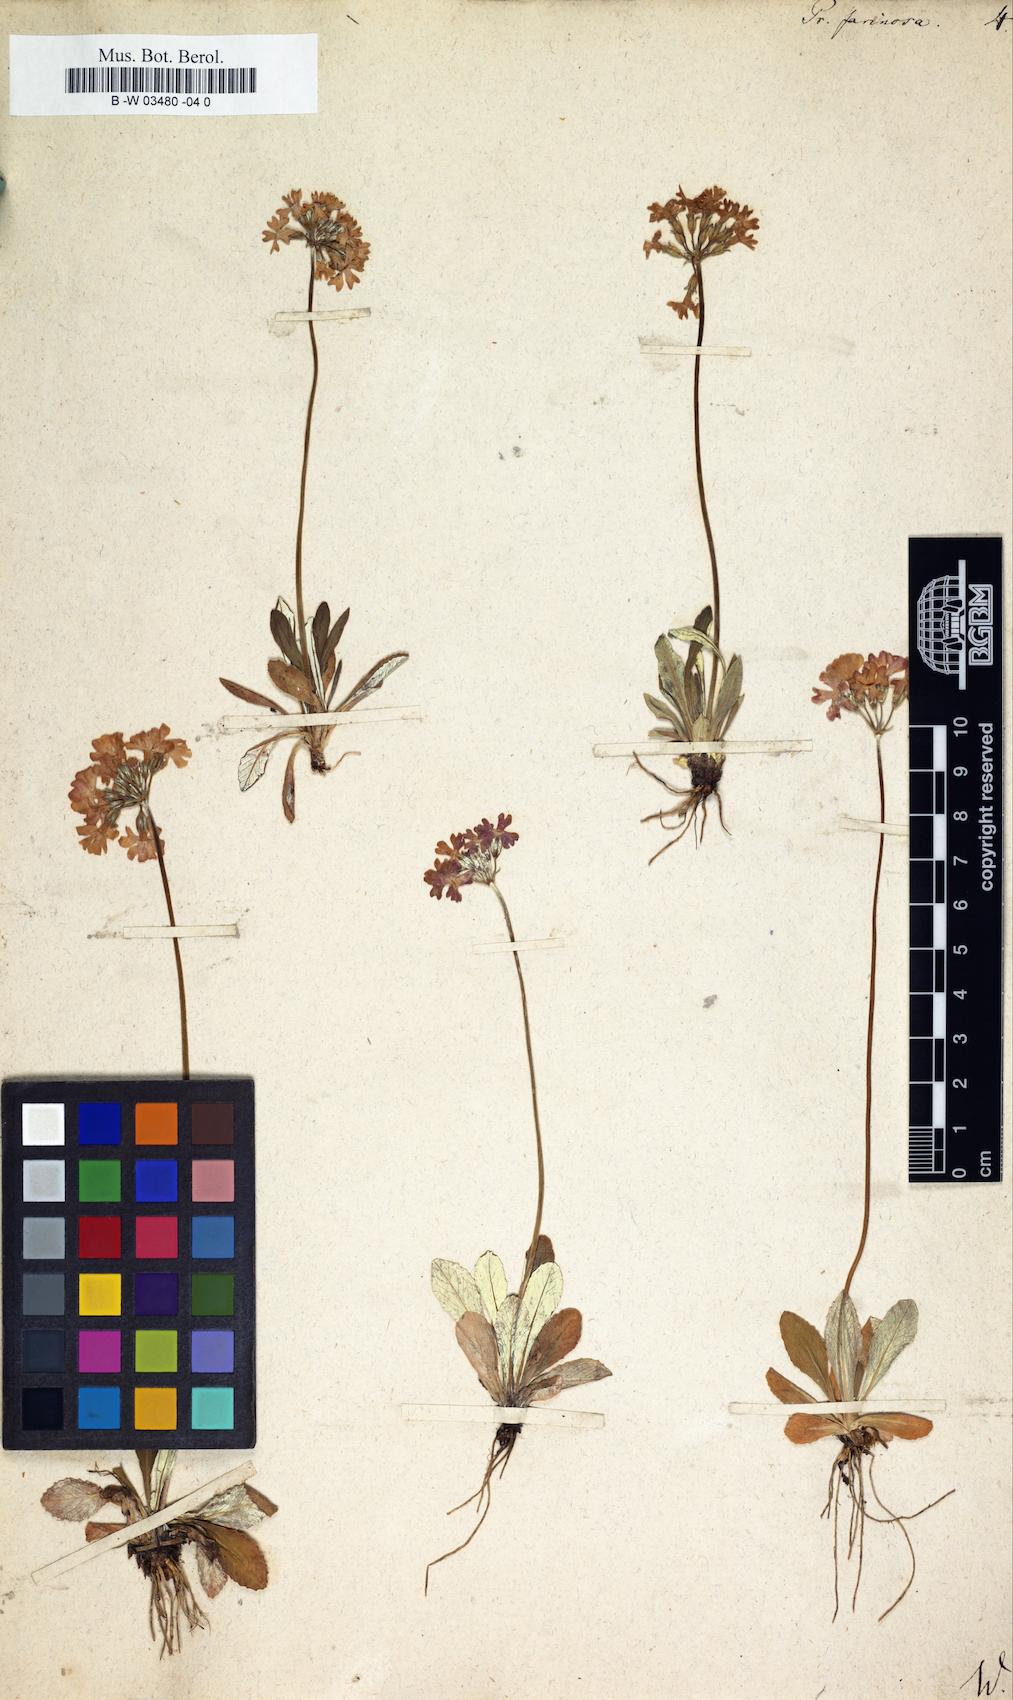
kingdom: Plantae
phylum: Tracheophyta
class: Magnoliopsida
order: Ericales
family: Primulaceae
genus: Primula
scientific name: Primula farinosa
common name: Bird's-eye primrose
